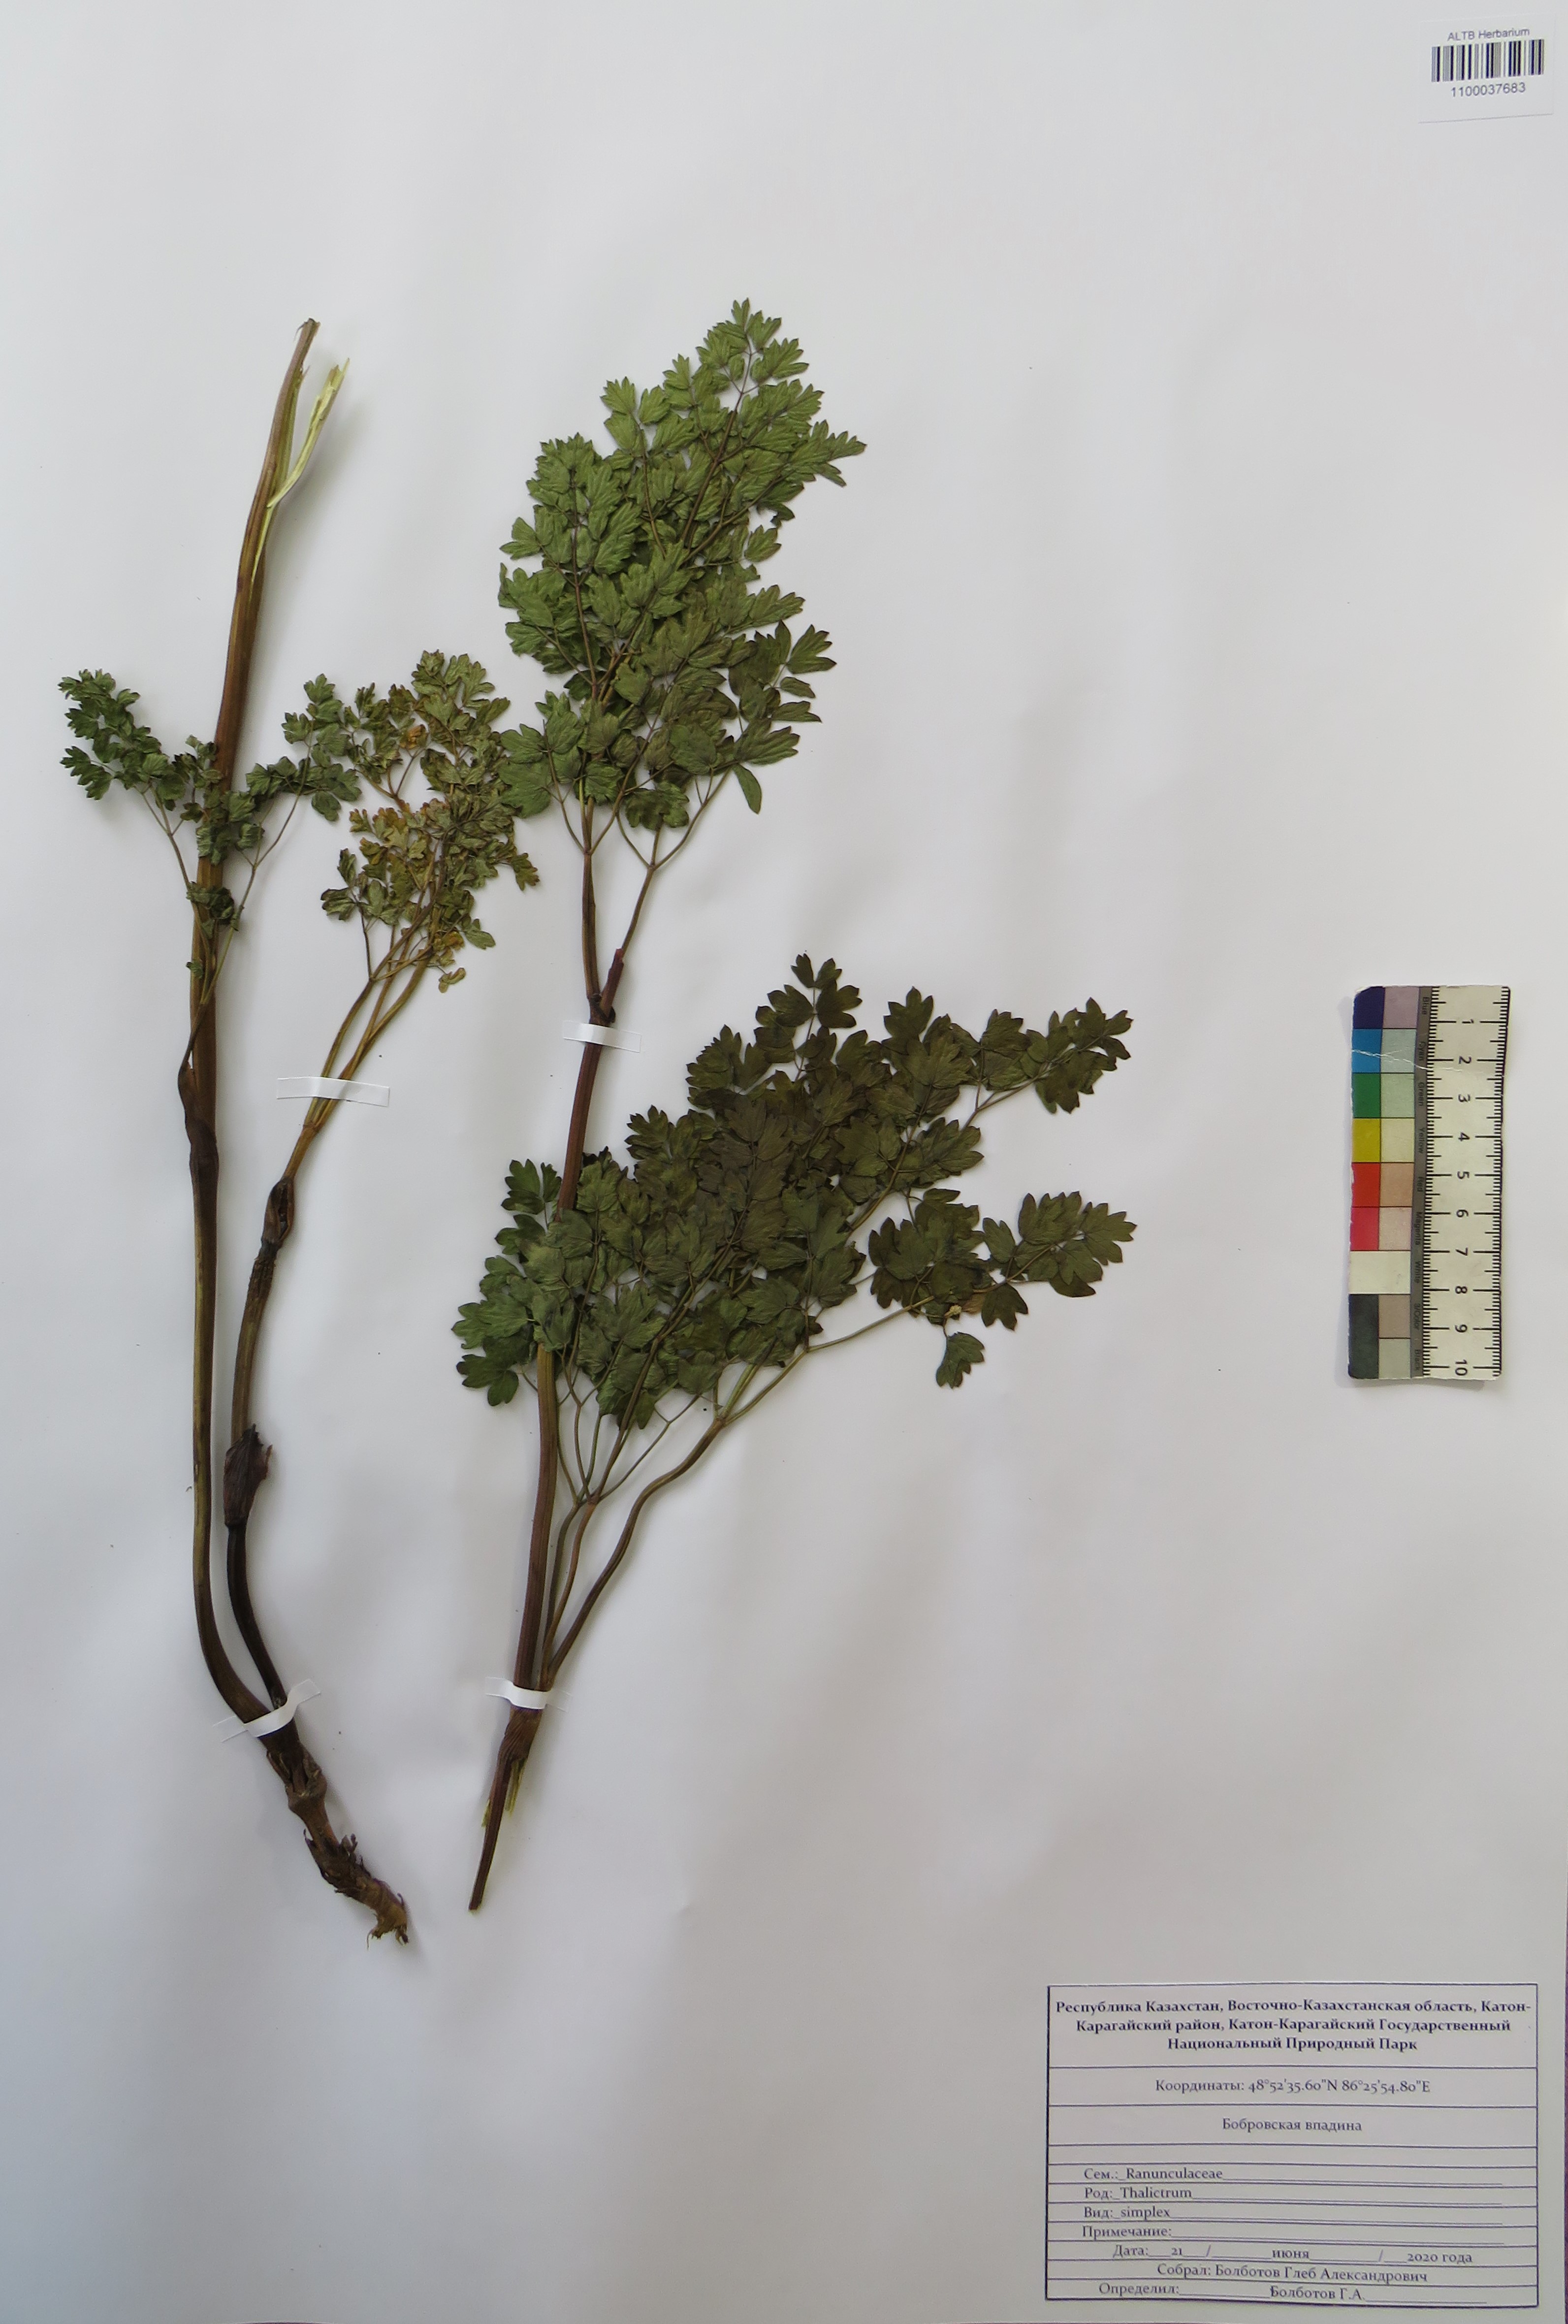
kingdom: Plantae
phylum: Tracheophyta
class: Magnoliopsida
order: Ranunculales
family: Ranunculaceae
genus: Thalictrum
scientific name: Thalictrum simplex
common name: Small meadow-rue
